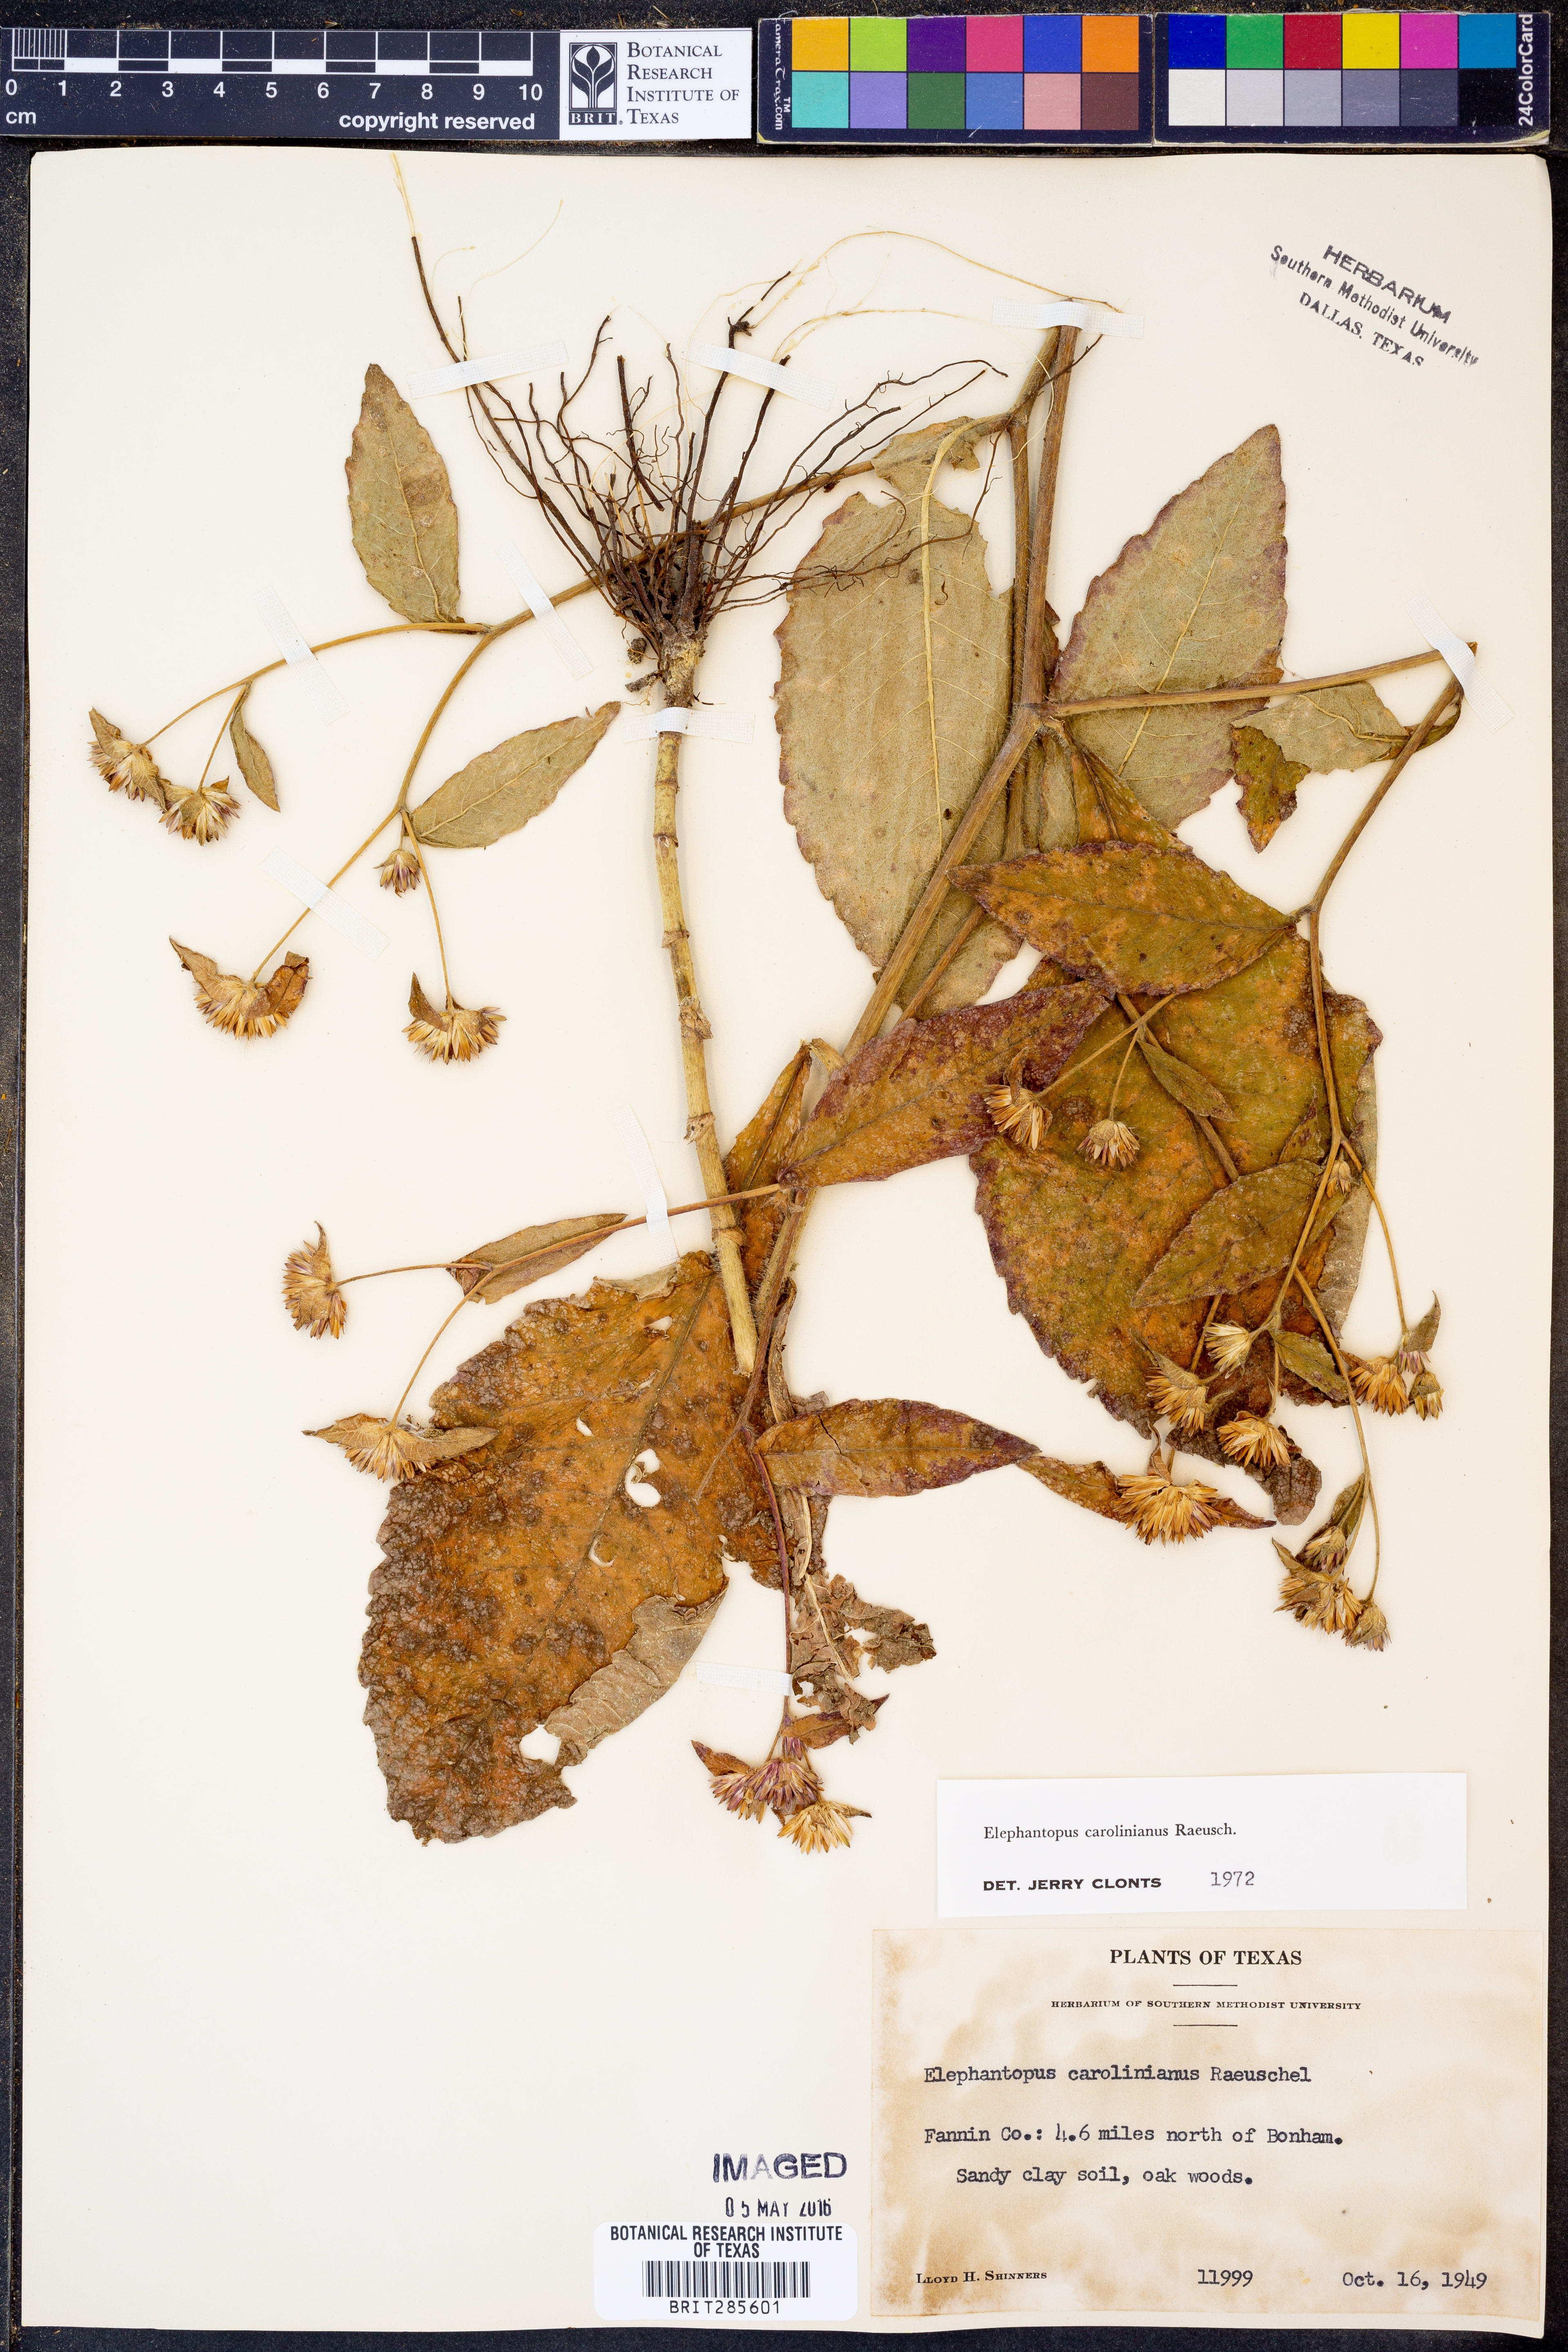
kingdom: Plantae
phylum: Tracheophyta
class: Magnoliopsida
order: Asterales
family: Asteraceae
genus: Elephantopus
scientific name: Elephantopus carolinianus
